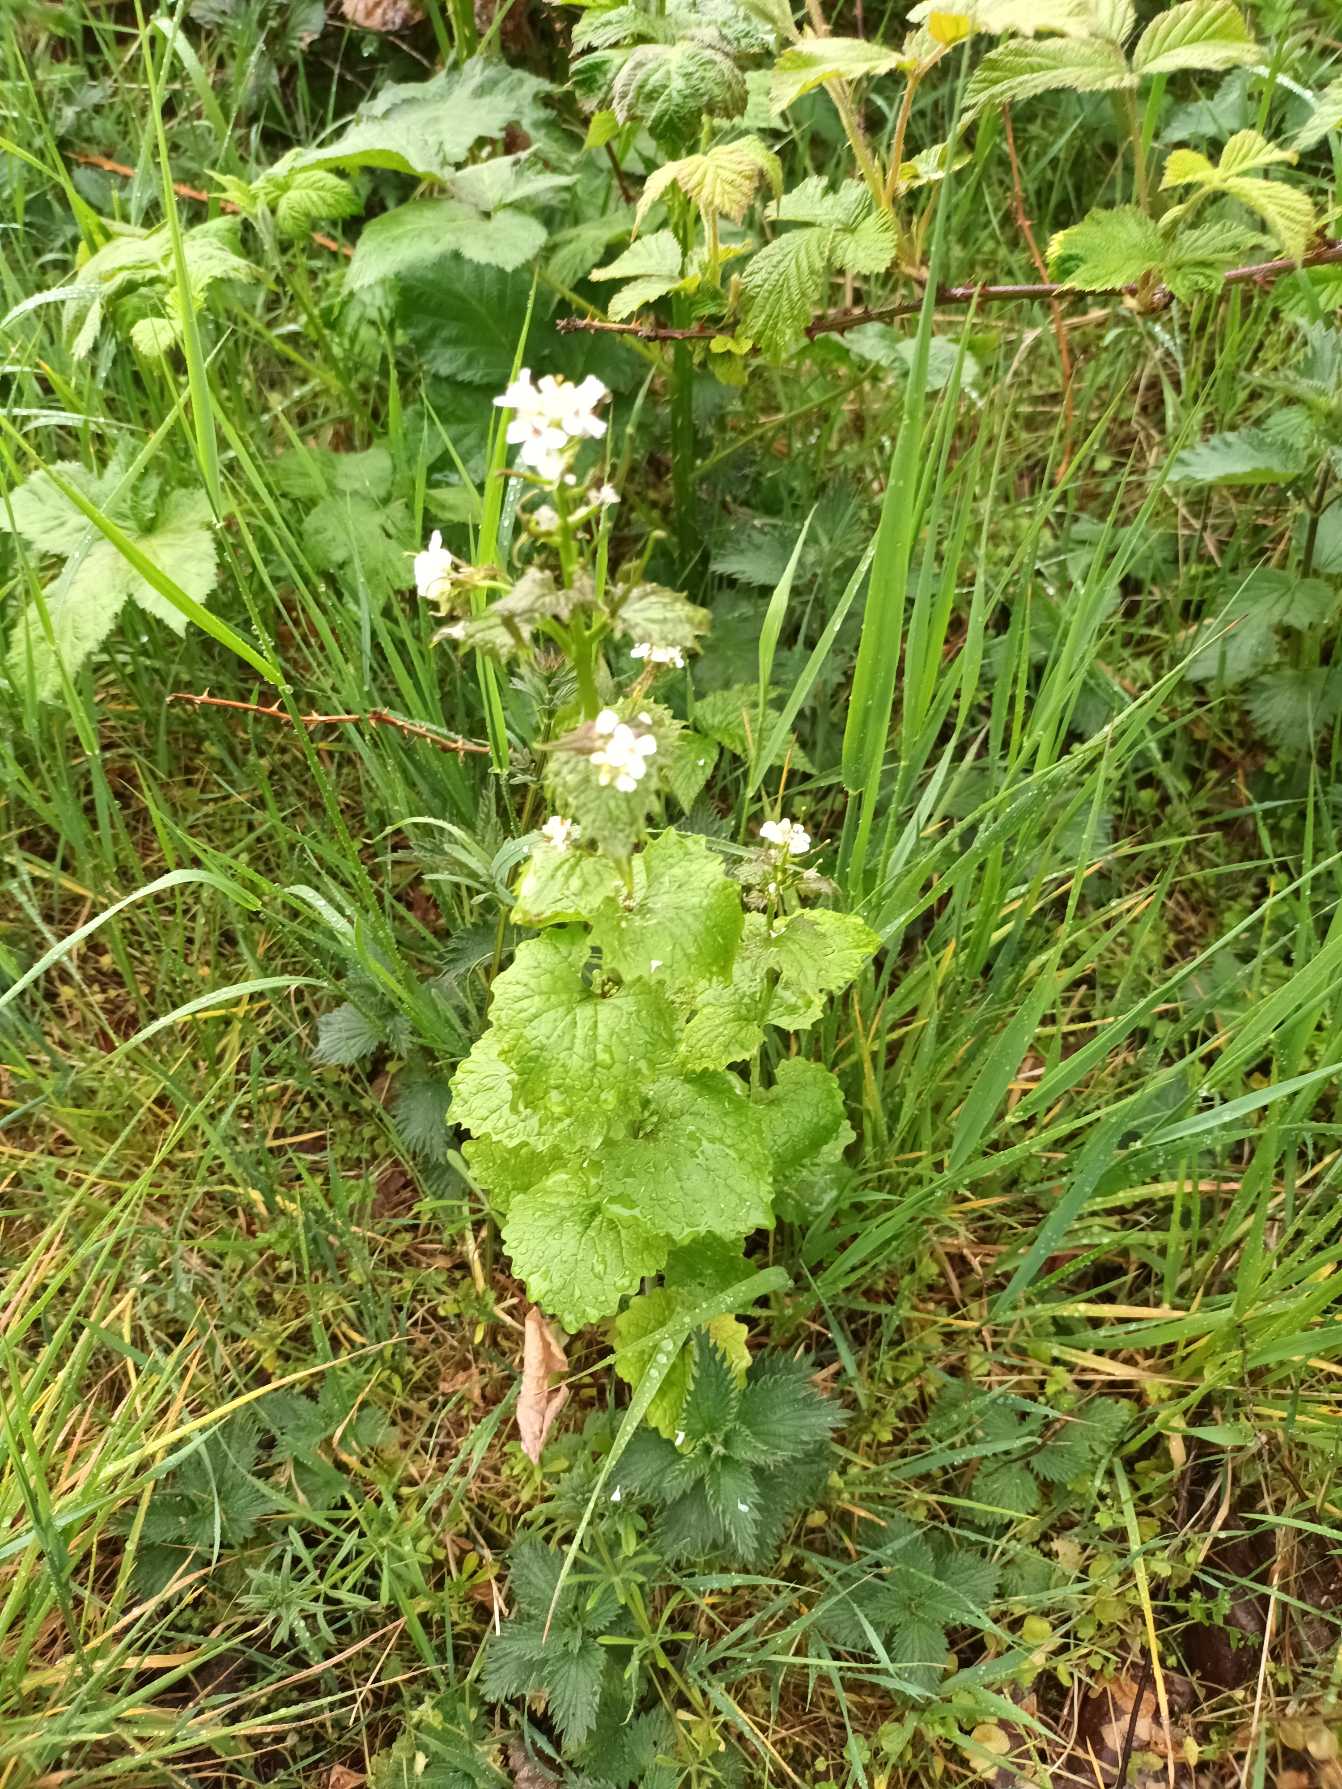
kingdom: Plantae
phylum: Tracheophyta
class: Magnoliopsida
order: Brassicales
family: Brassicaceae
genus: Alliaria
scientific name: Alliaria petiolata
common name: Løgkarse
